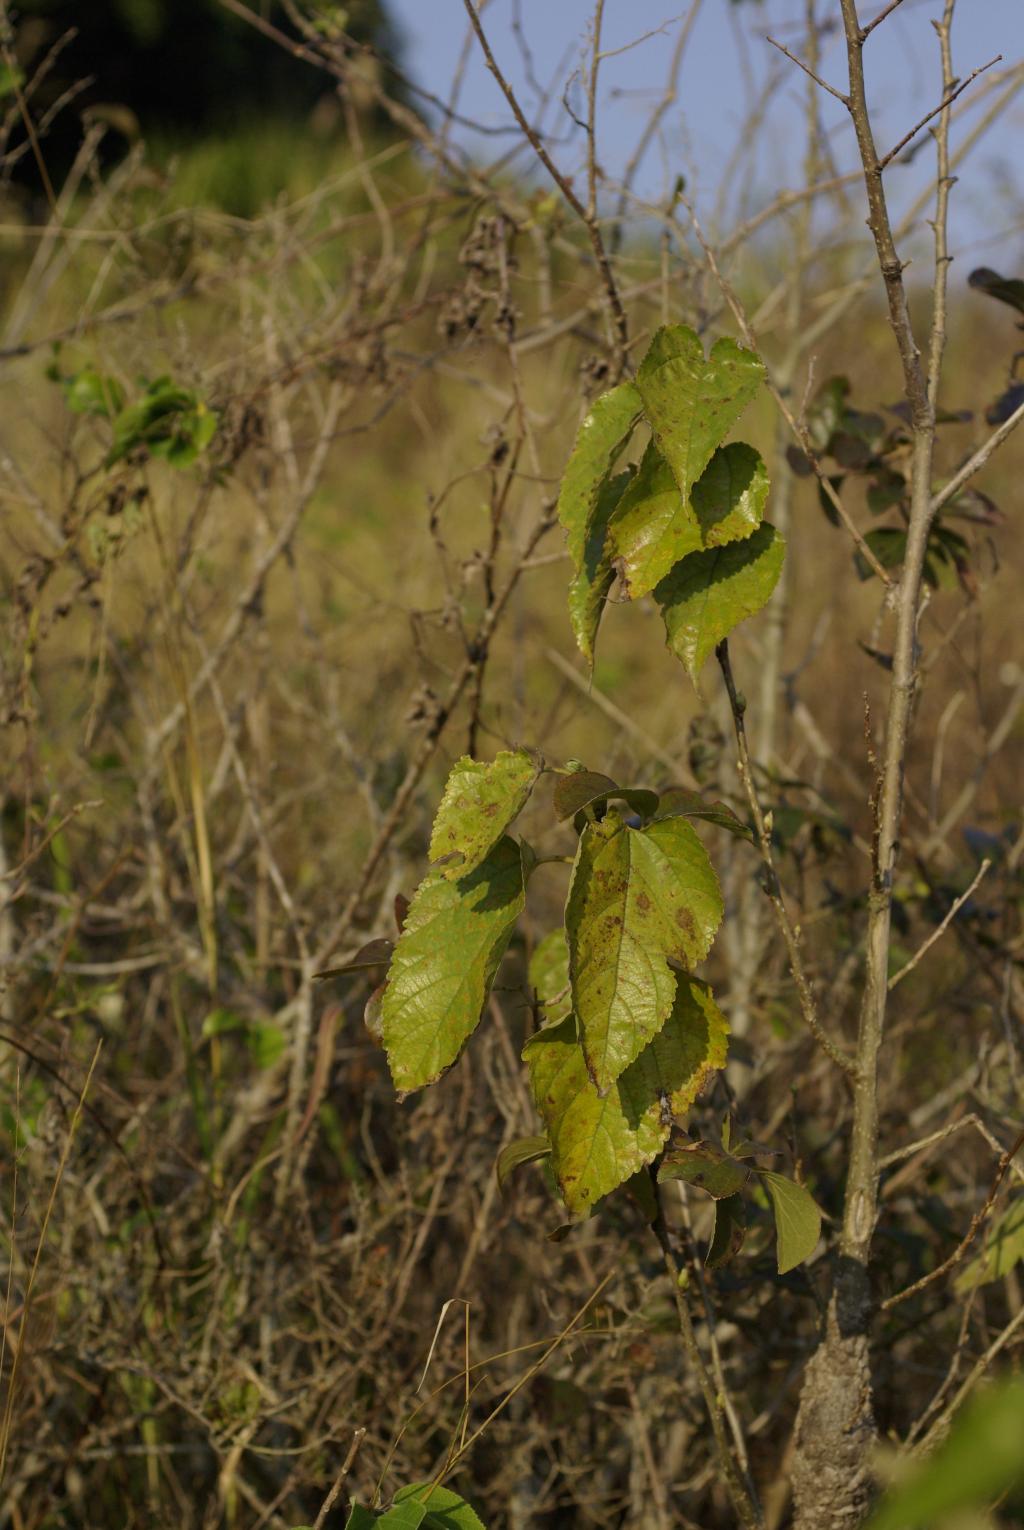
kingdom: Plantae
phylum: Tracheophyta
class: Magnoliopsida
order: Rosales
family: Moraceae
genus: Broussonetia
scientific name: Broussonetia papyrifera
